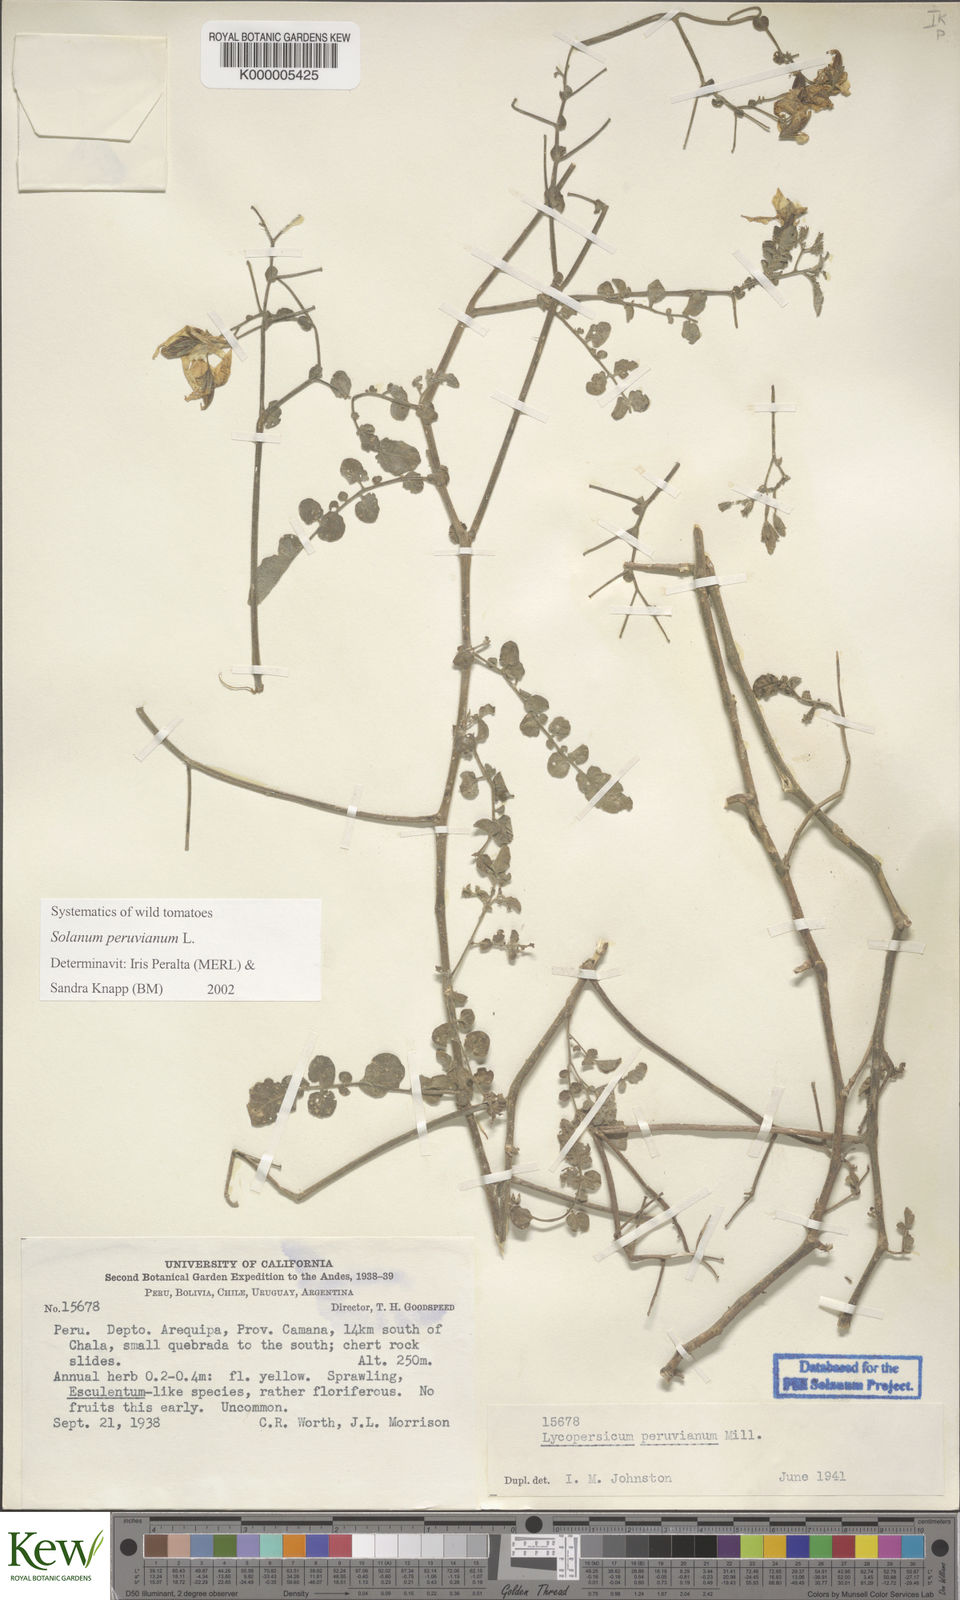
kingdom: Plantae
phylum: Tracheophyta
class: Magnoliopsida
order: Solanales
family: Solanaceae
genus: Solanum
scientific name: Solanum peruvianum
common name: Peruvian nightshade
